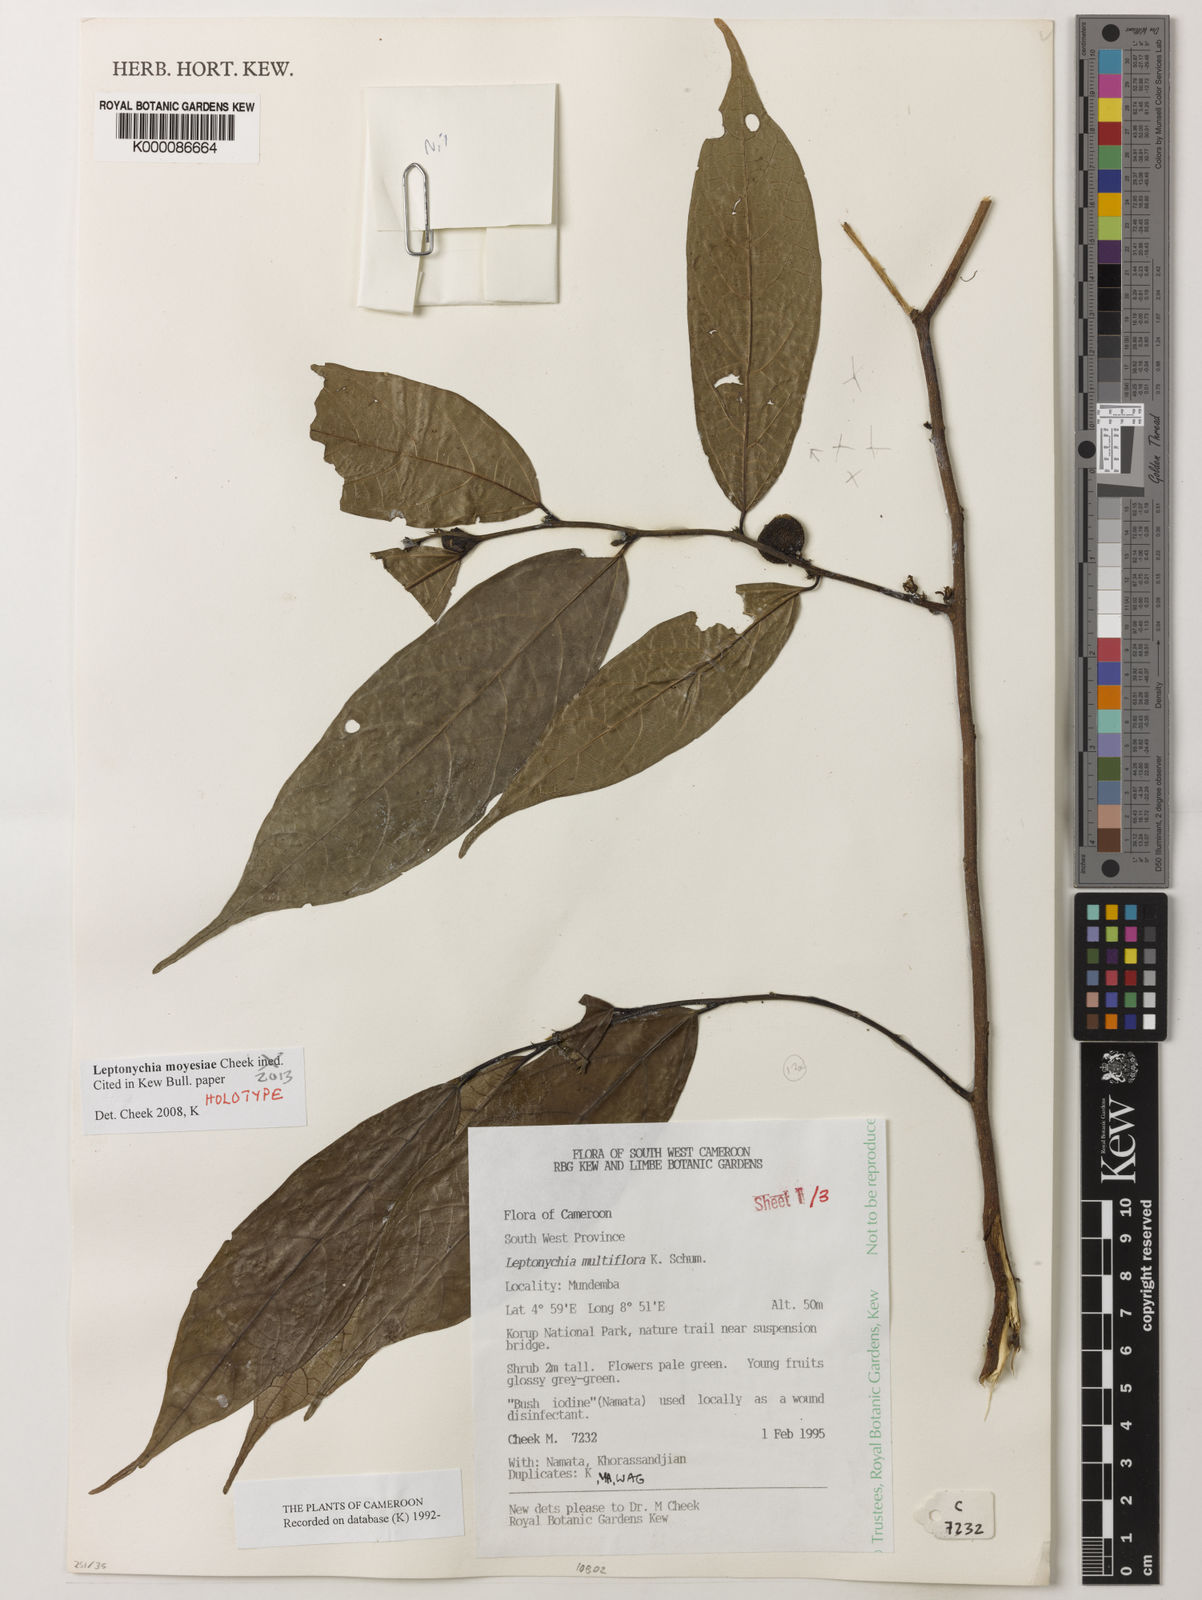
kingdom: Plantae
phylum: Tracheophyta
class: Magnoliopsida
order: Malvales
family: Malvaceae
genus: Leptonychia
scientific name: Leptonychia moyesiae
